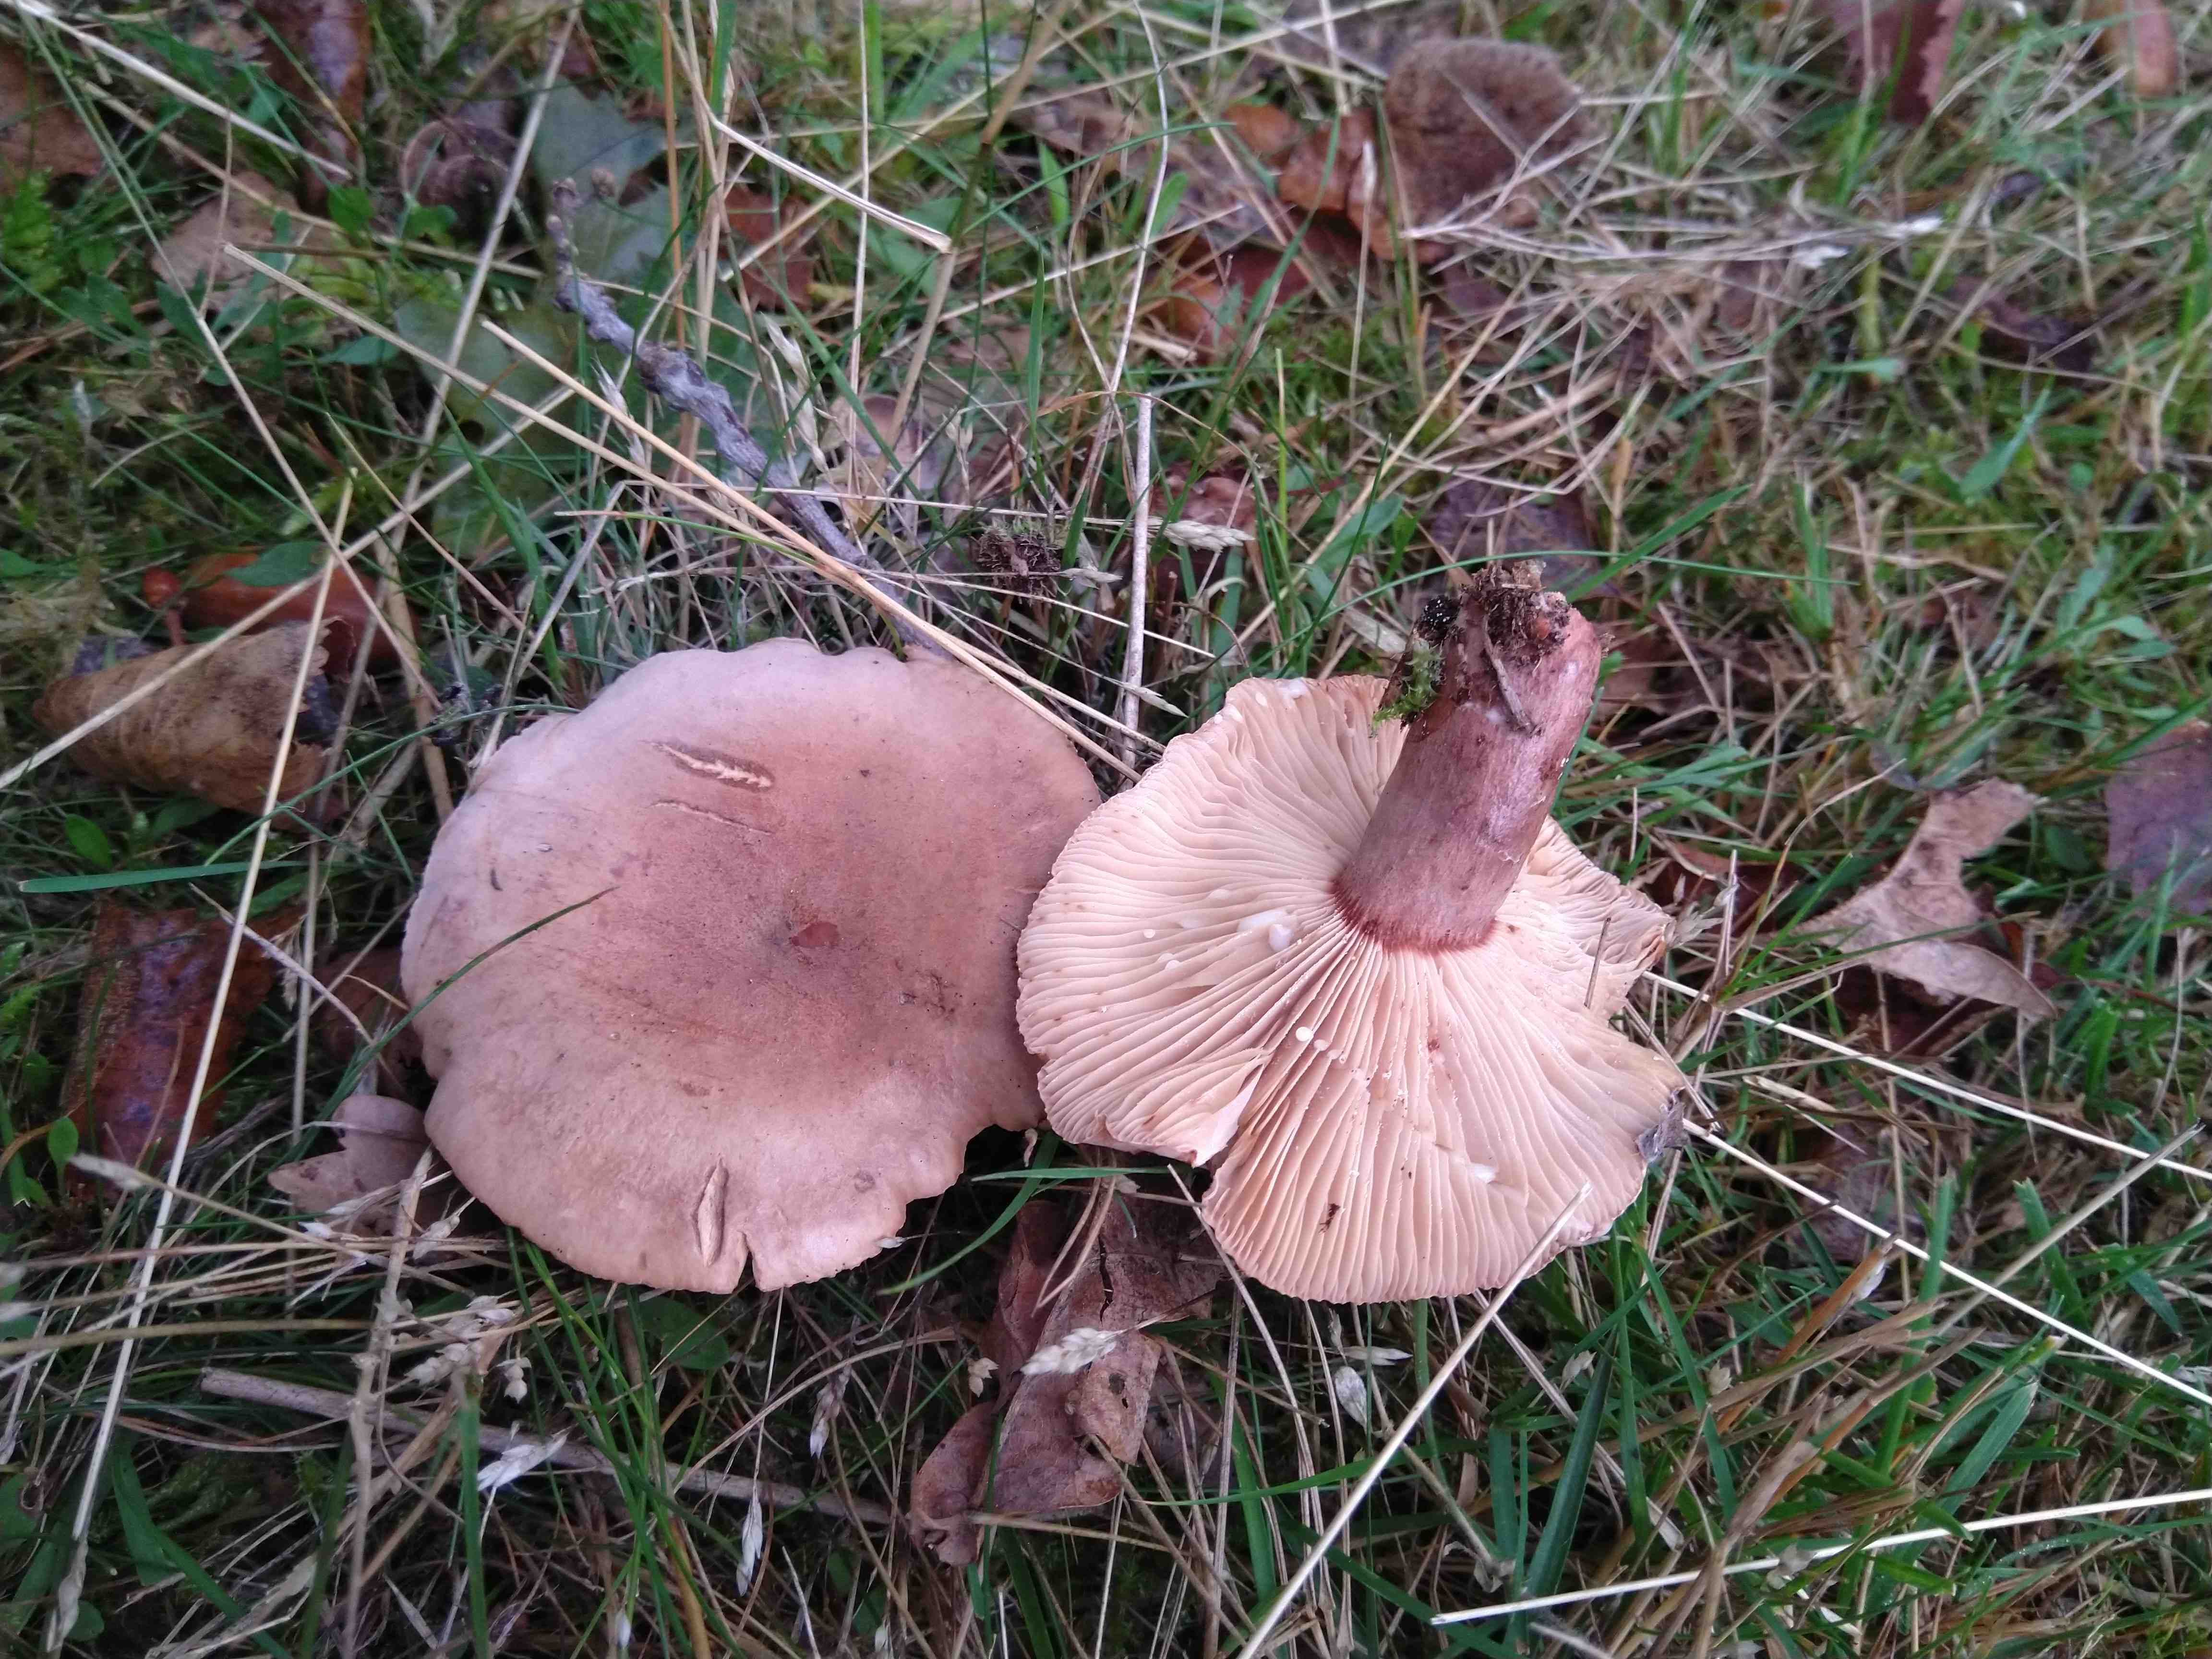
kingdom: Fungi
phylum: Basidiomycota
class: Agaricomycetes
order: Russulales
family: Russulaceae
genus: Lactarius
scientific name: Lactarius quietus
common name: ege-mælkehat
